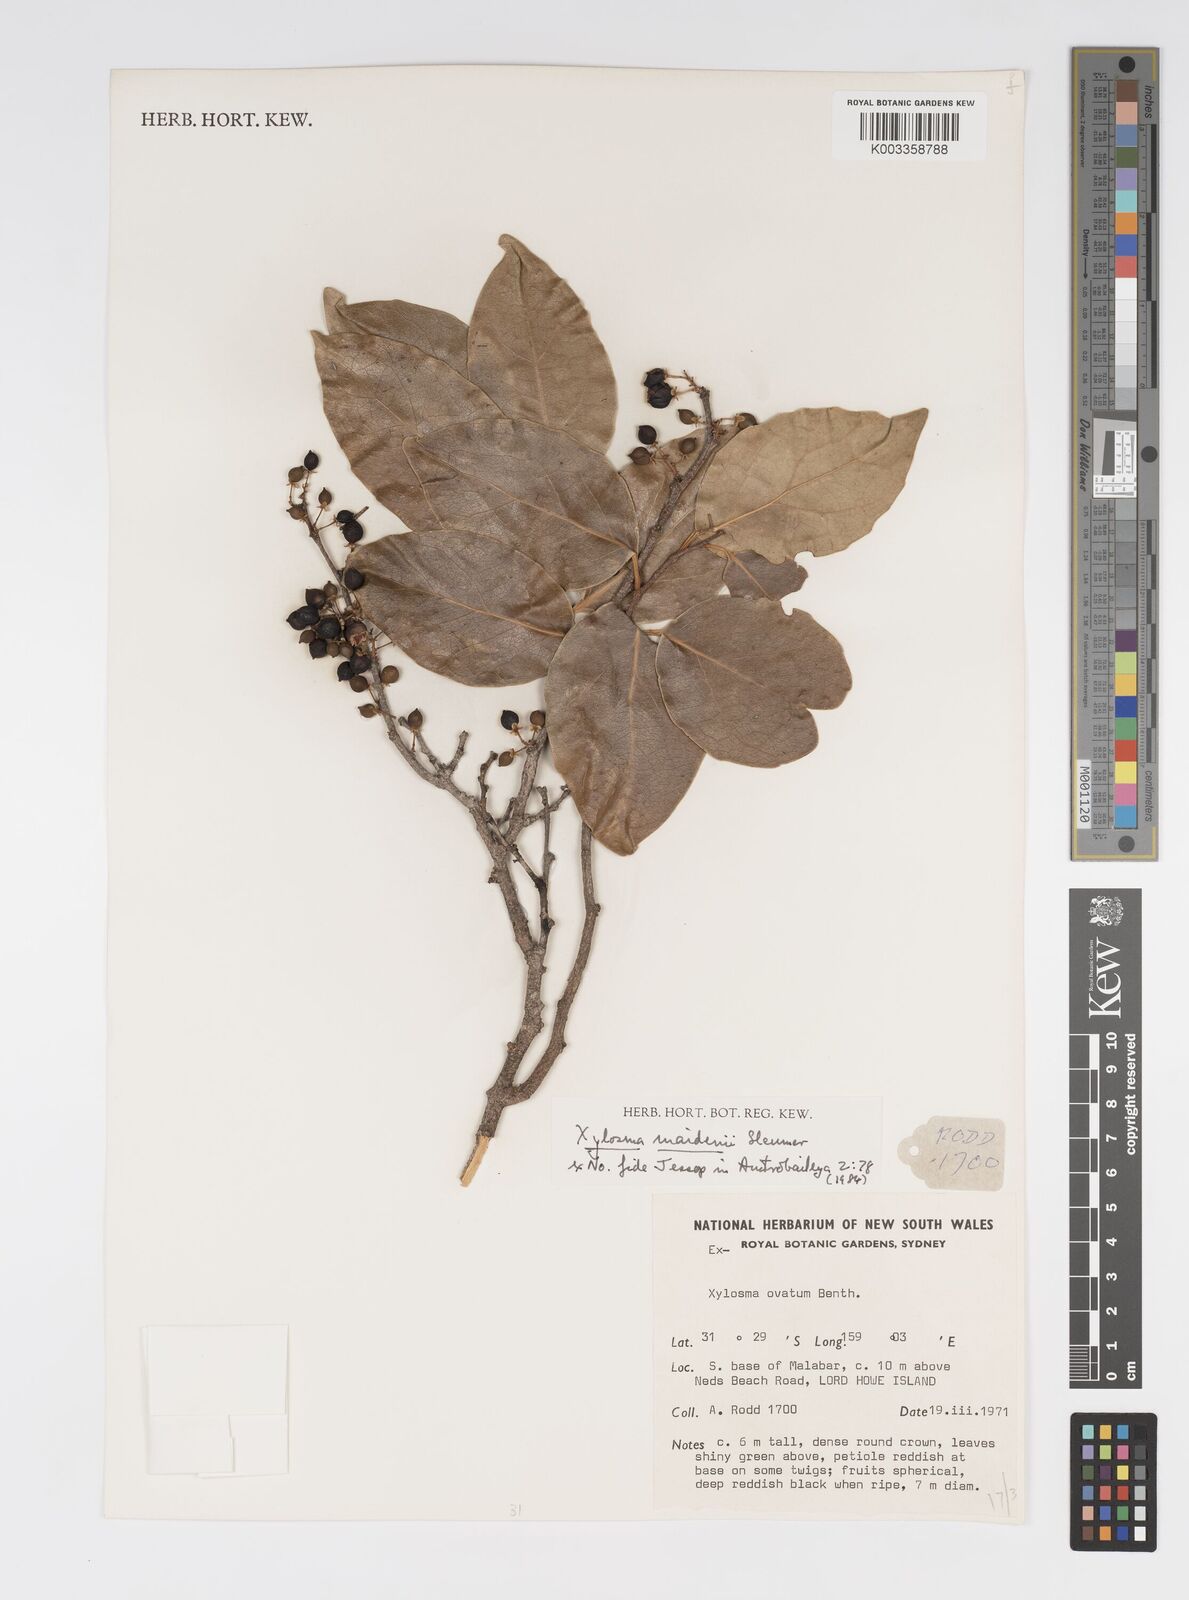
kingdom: Plantae
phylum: Tracheophyta
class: Magnoliopsida
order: Malpighiales
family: Salicaceae
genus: Xylosma
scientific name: Xylosma maidenii
